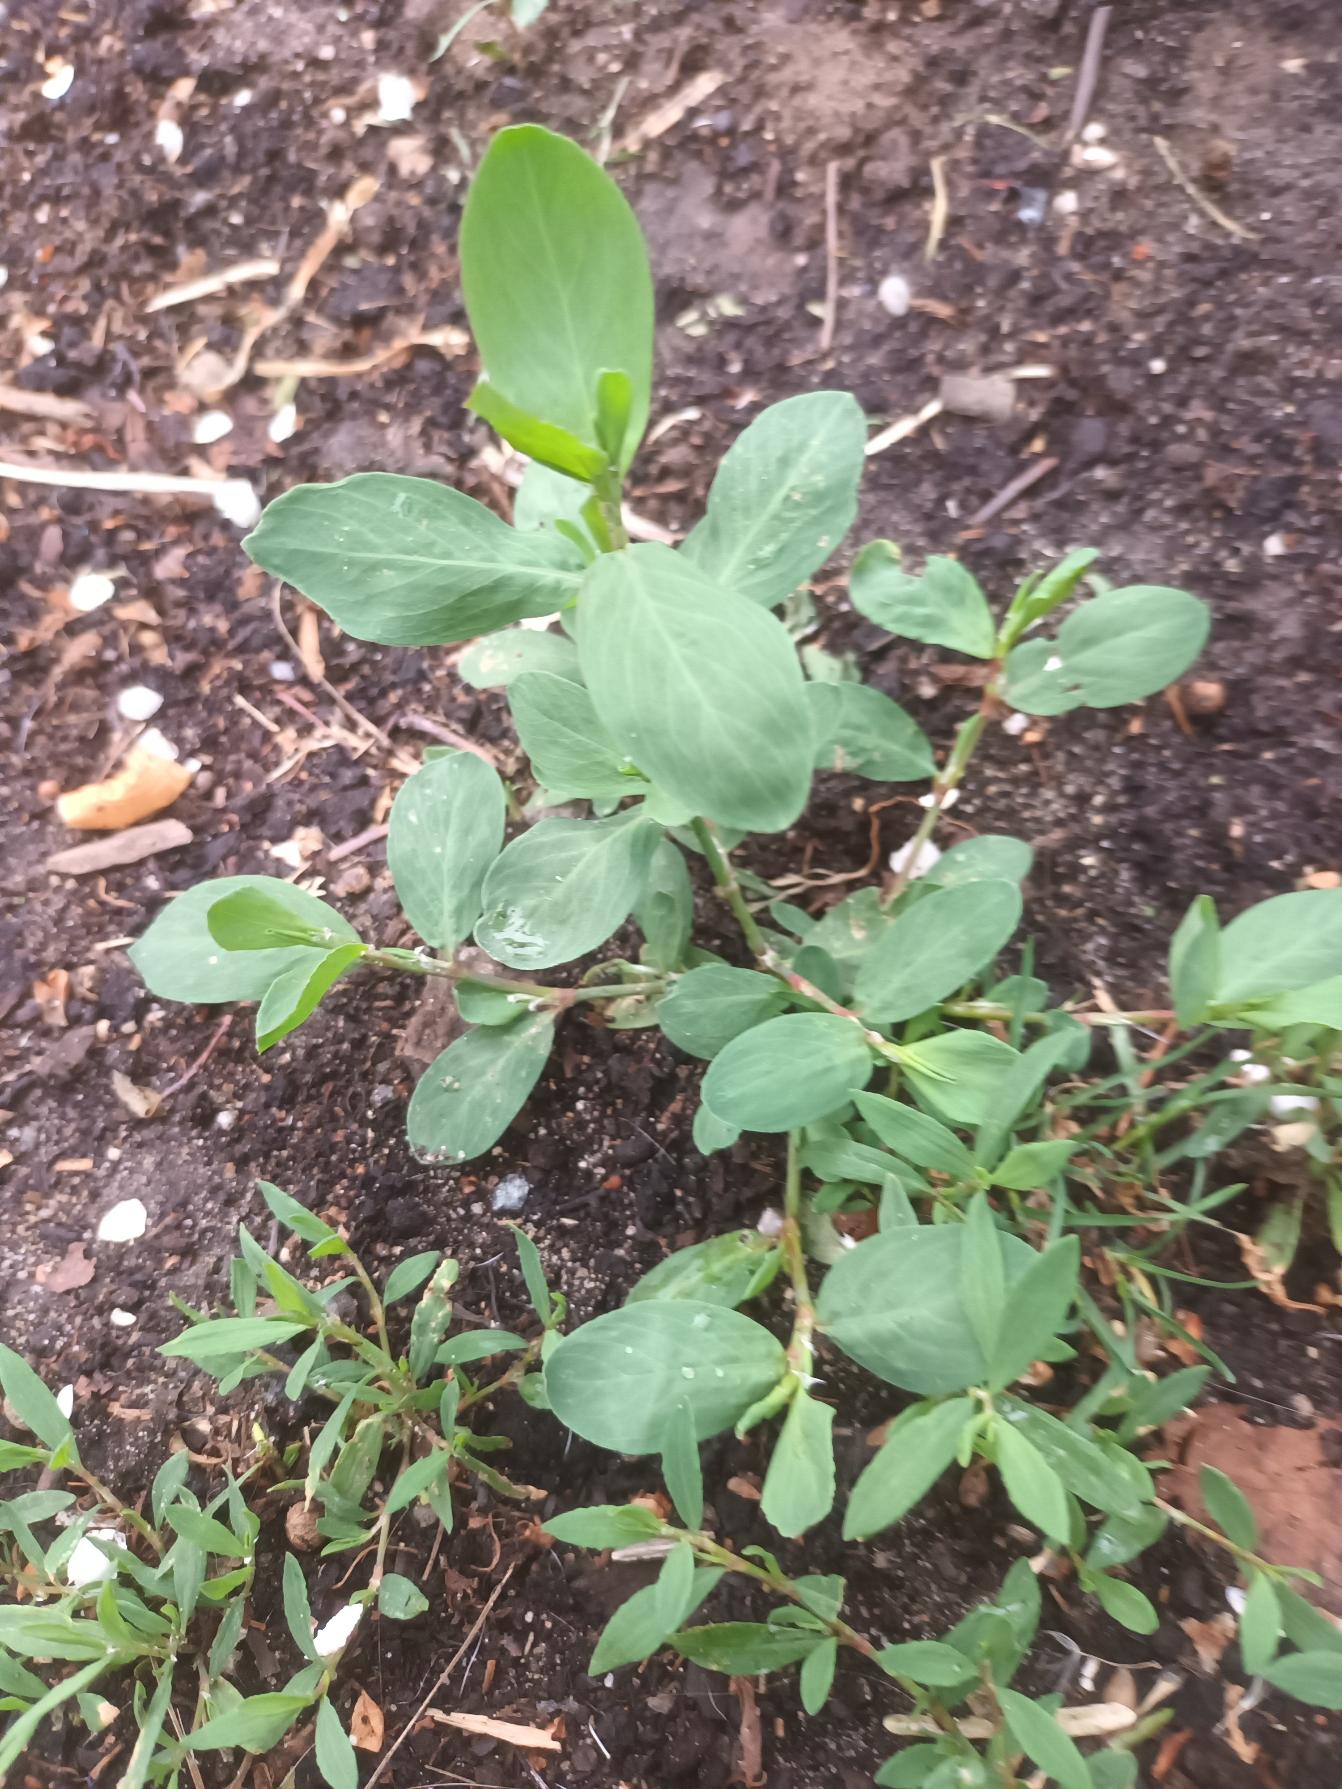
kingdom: Plantae
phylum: Tracheophyta
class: Magnoliopsida
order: Caryophyllales
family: Polygonaceae
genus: Polygonum
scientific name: Polygonum aviculare
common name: Vej-pileurt
